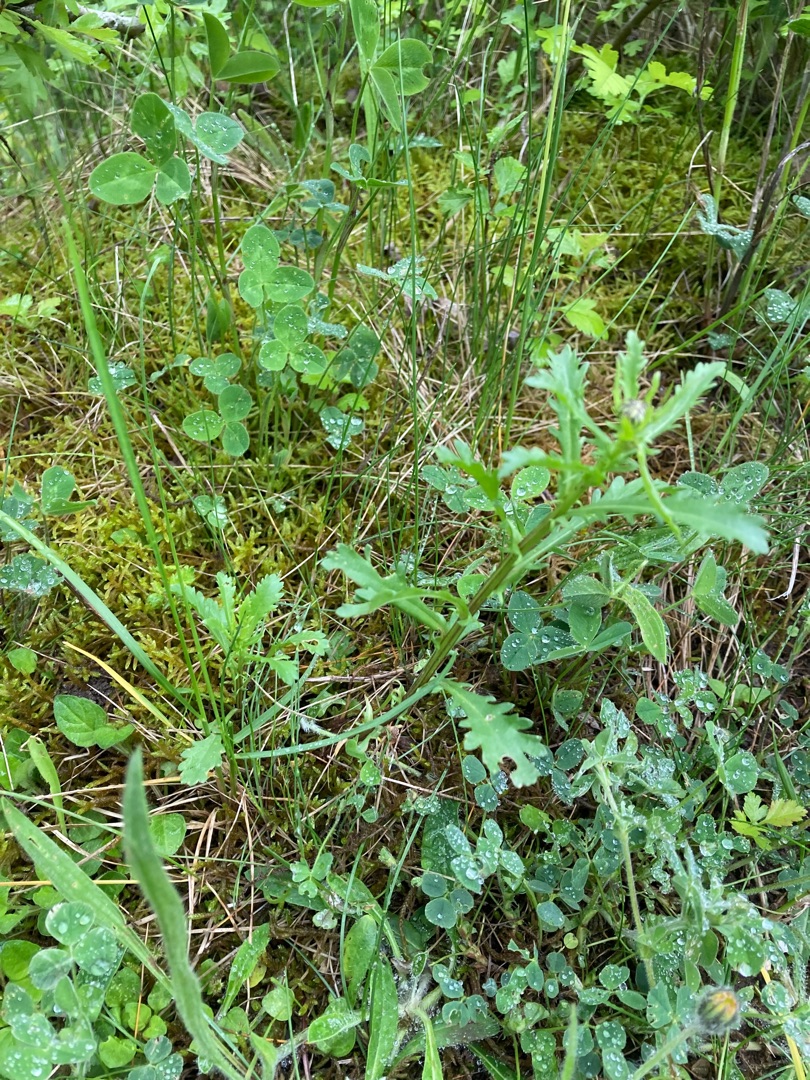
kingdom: Plantae
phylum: Tracheophyta
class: Magnoliopsida
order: Asterales
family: Asteraceae
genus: Leucanthemum
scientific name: Leucanthemum vulgare
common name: Hvid okseøje
